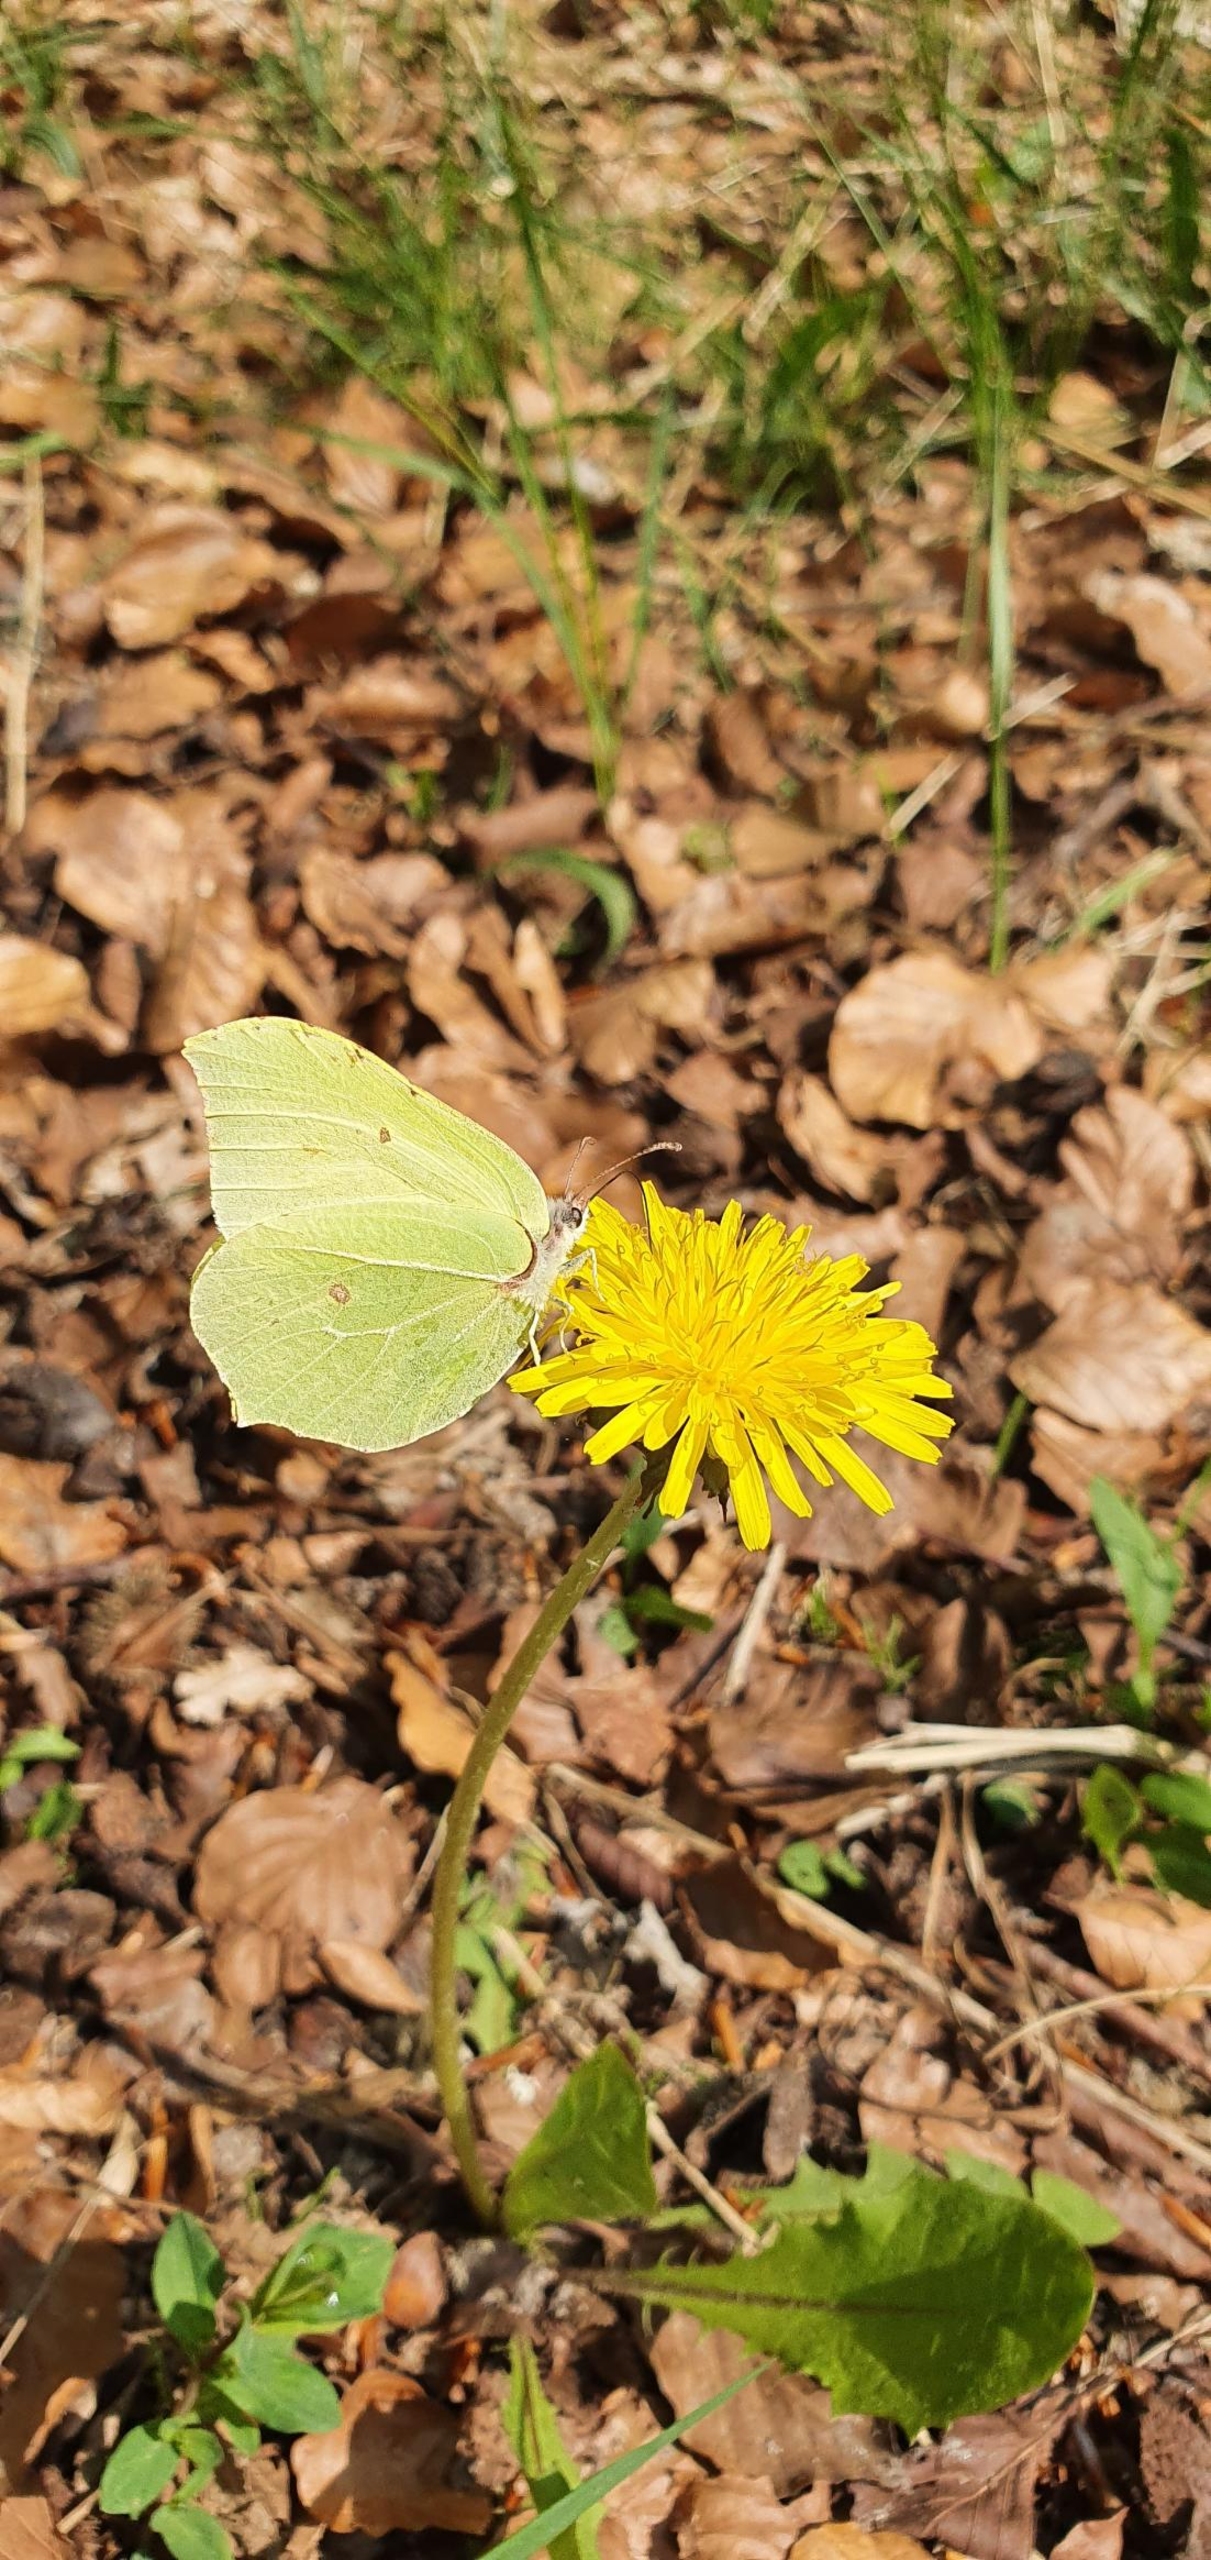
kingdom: Animalia
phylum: Arthropoda
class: Insecta
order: Lepidoptera
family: Pieridae
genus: Gonepteryx
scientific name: Gonepteryx rhamni
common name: Citronsommerfugl
